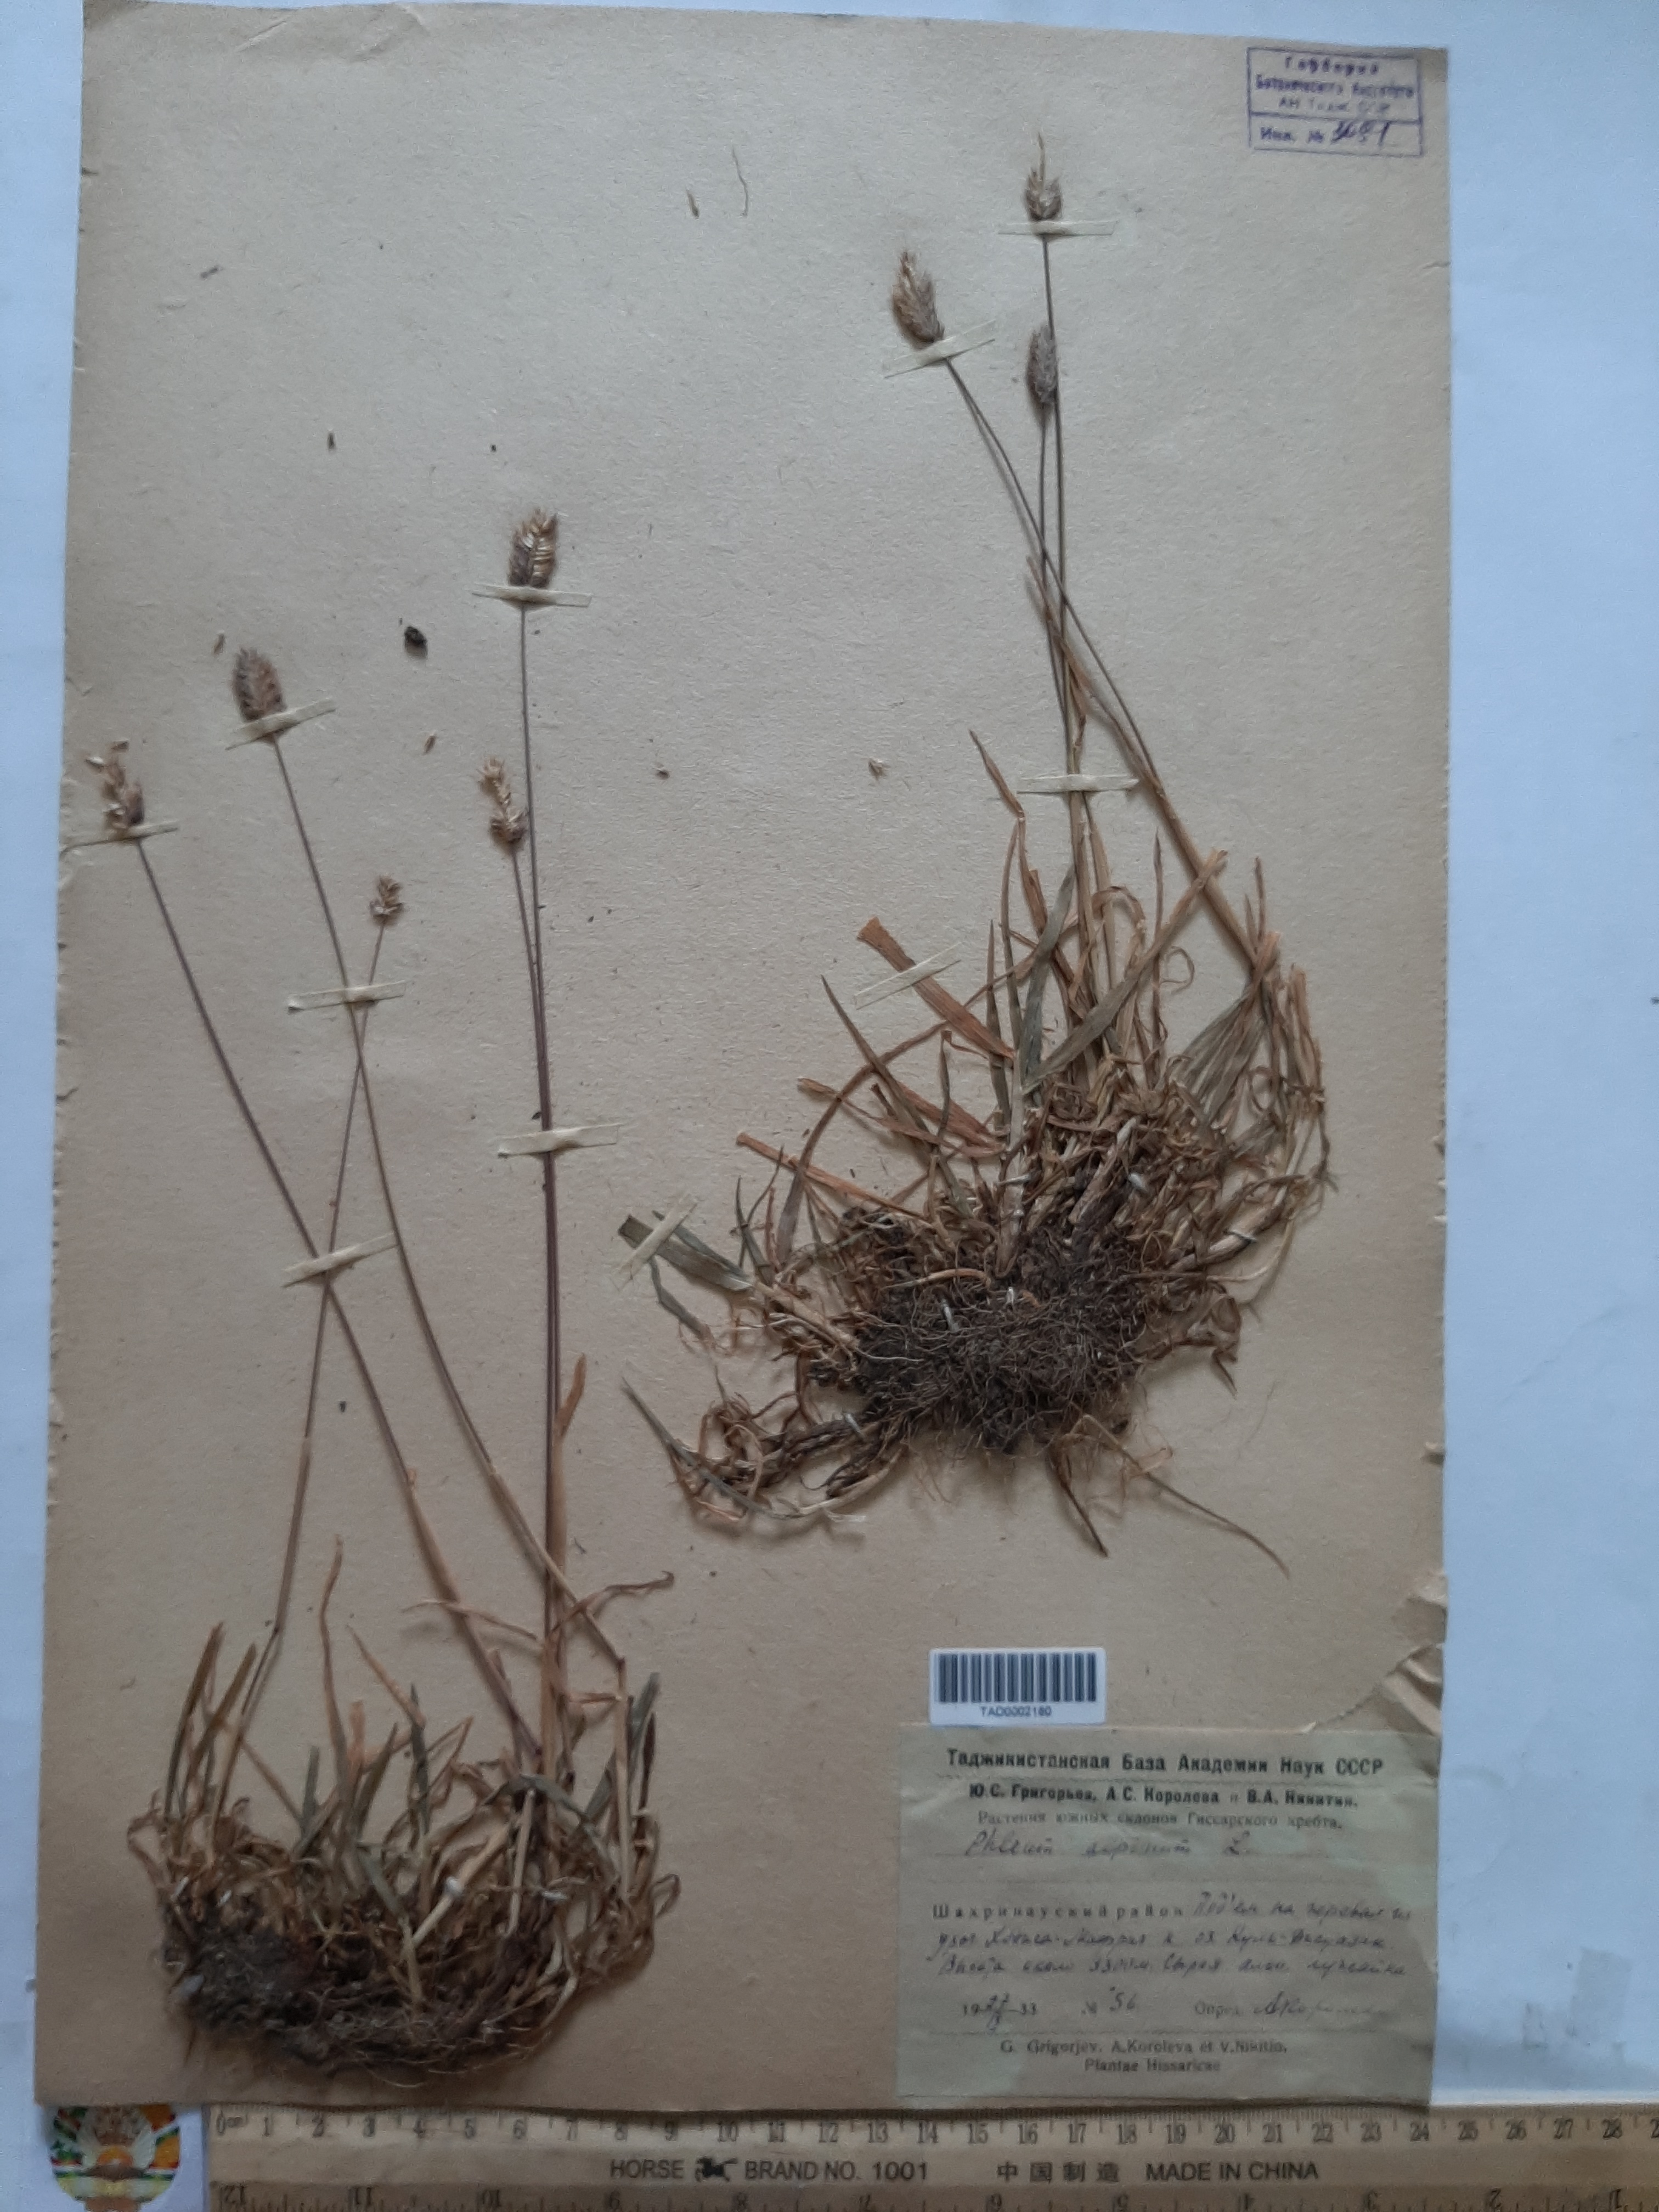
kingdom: Plantae
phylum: Tracheophyta
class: Liliopsida
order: Poales
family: Poaceae
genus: Phleum
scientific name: Phleum alpinum
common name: Alpine cat's-tail
